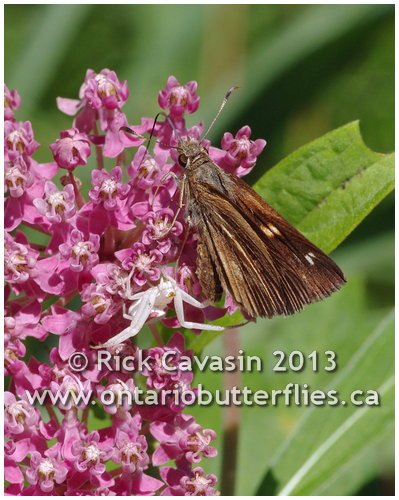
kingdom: Animalia
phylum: Arthropoda
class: Insecta
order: Lepidoptera
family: Hesperiidae
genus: Poanes
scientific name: Poanes viator
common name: Broad-winged Skipper
